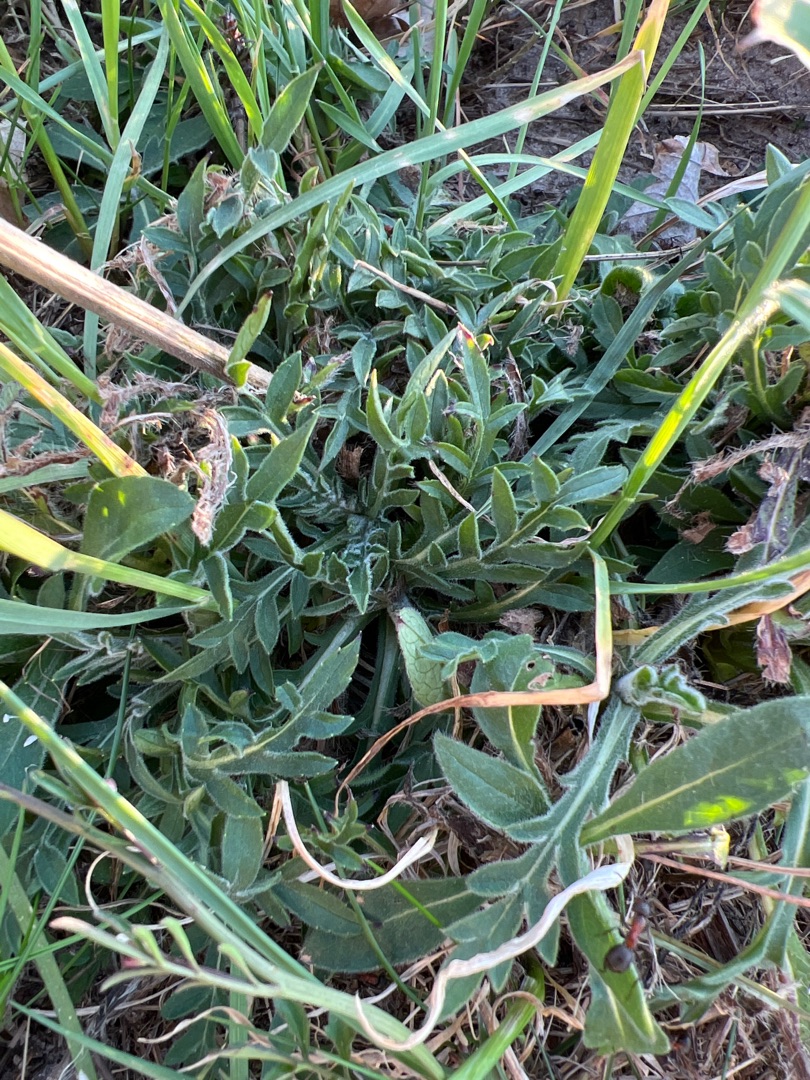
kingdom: Plantae
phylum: Tracheophyta
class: Magnoliopsida
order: Dipsacales
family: Caprifoliaceae
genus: Knautia
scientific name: Knautia arvensis
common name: Blåhat
